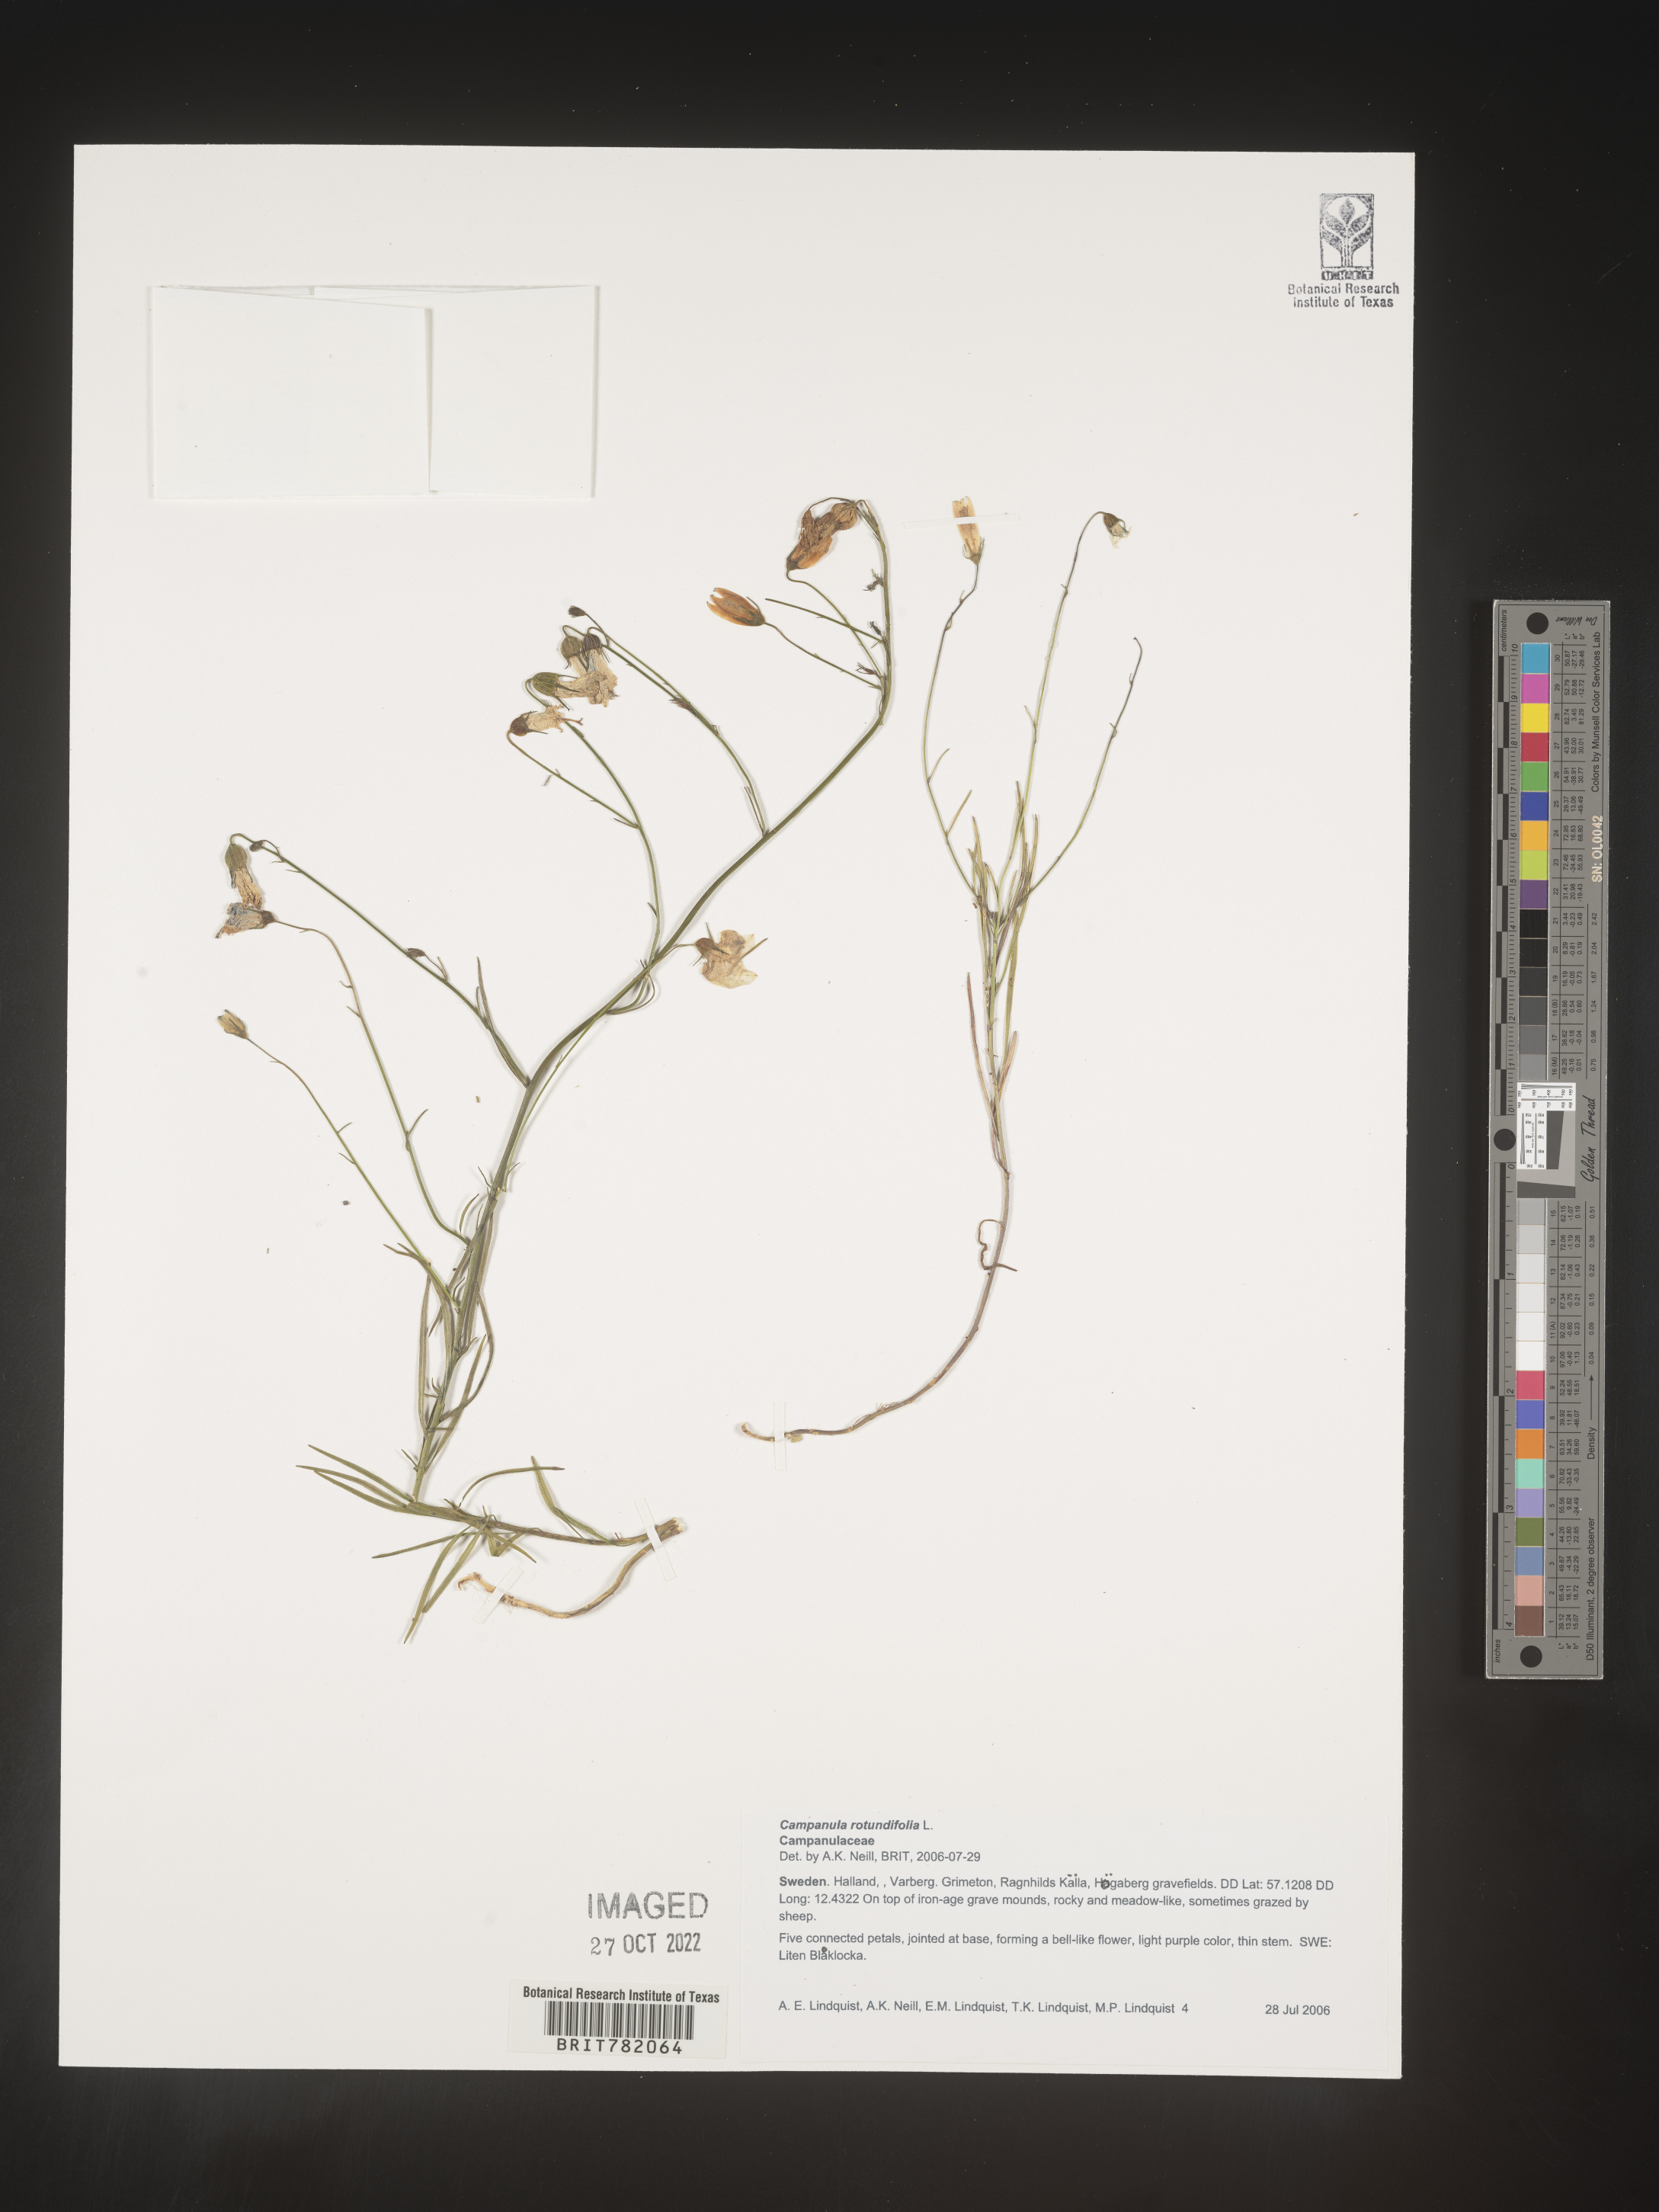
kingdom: Plantae
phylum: Tracheophyta
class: Magnoliopsida
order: Asterales
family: Campanulaceae
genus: Campanula
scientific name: Campanula rotundifolia
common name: Harebell
